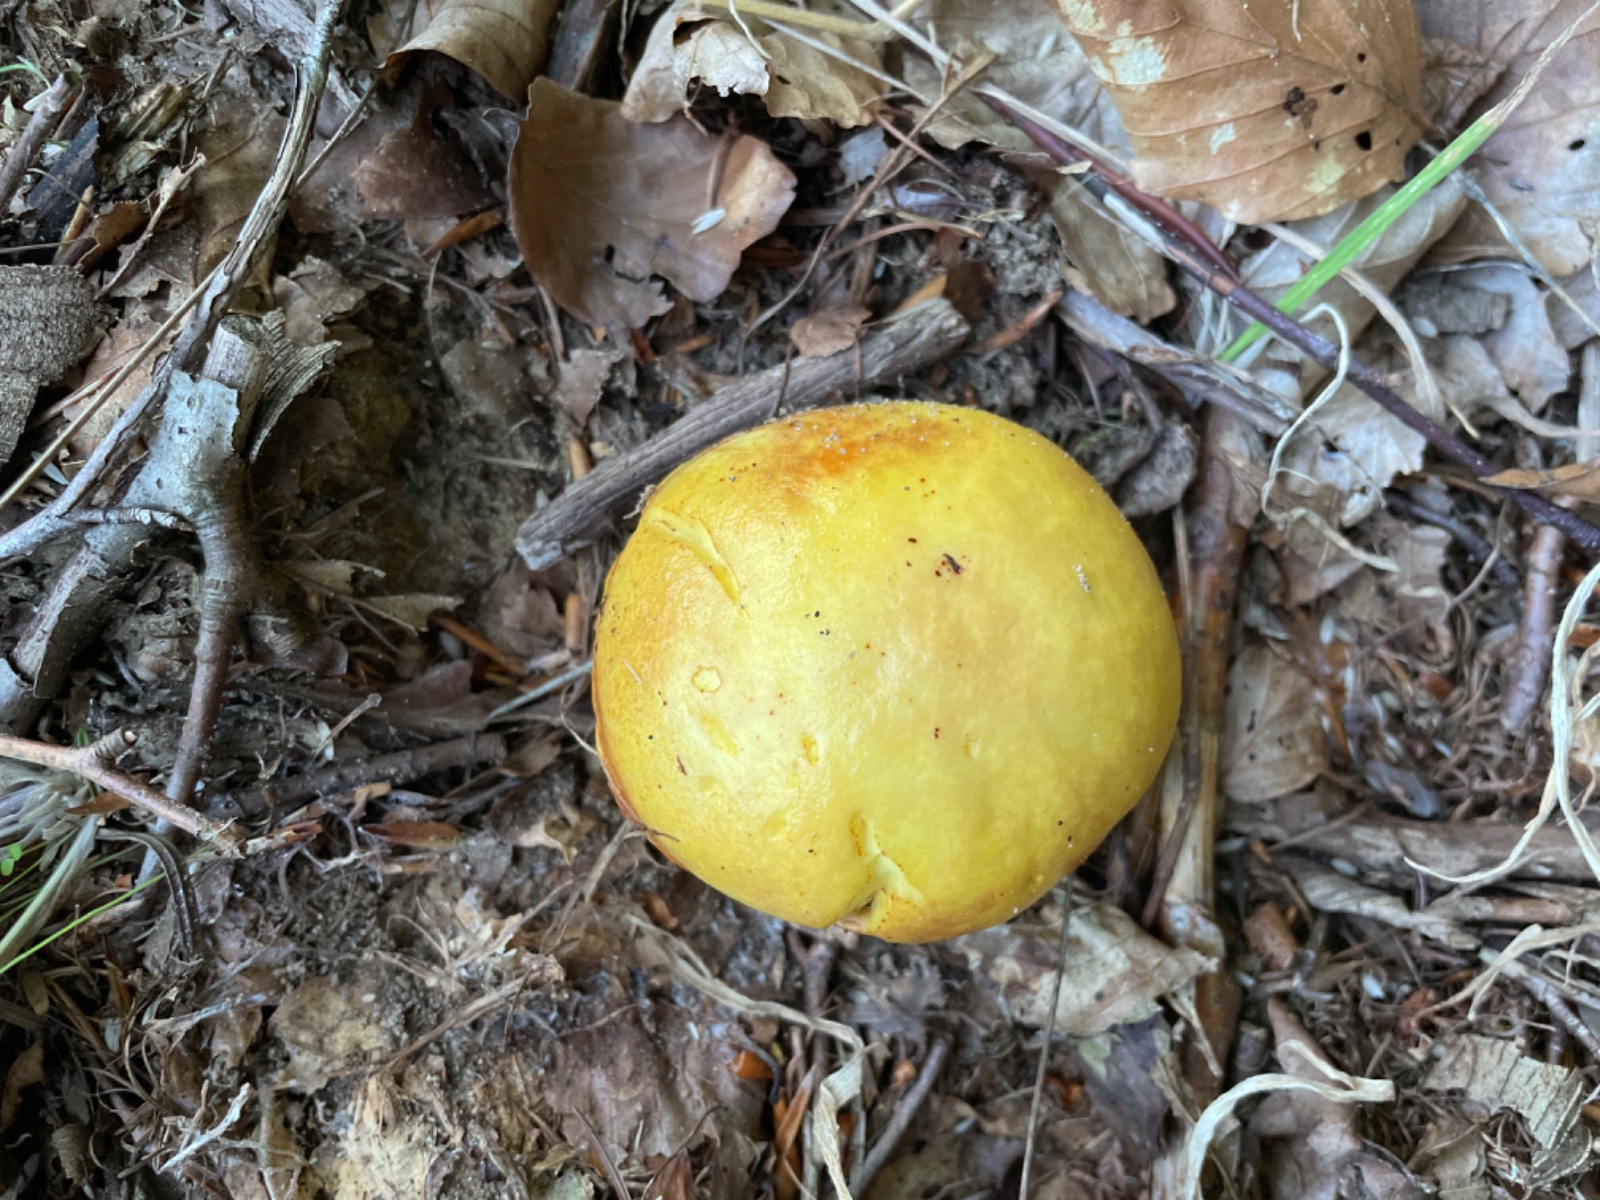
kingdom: Fungi
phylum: Basidiomycota
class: Agaricomycetes
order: Boletales
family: Suillaceae
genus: Suillus
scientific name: Suillus grevillei
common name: lærke-slimrørhat
